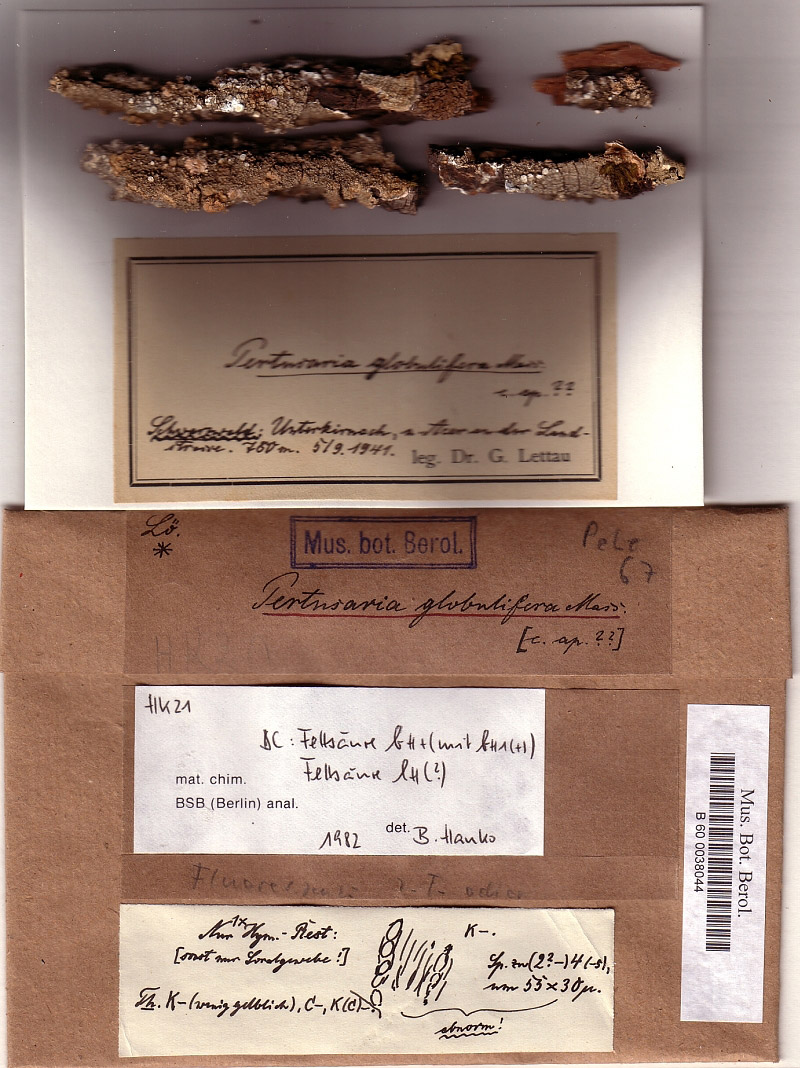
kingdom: Fungi
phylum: Ascomycota
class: Lecanoromycetes
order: Pertusariales
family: Pertusariaceae
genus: Lepra
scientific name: Lepra albescens
